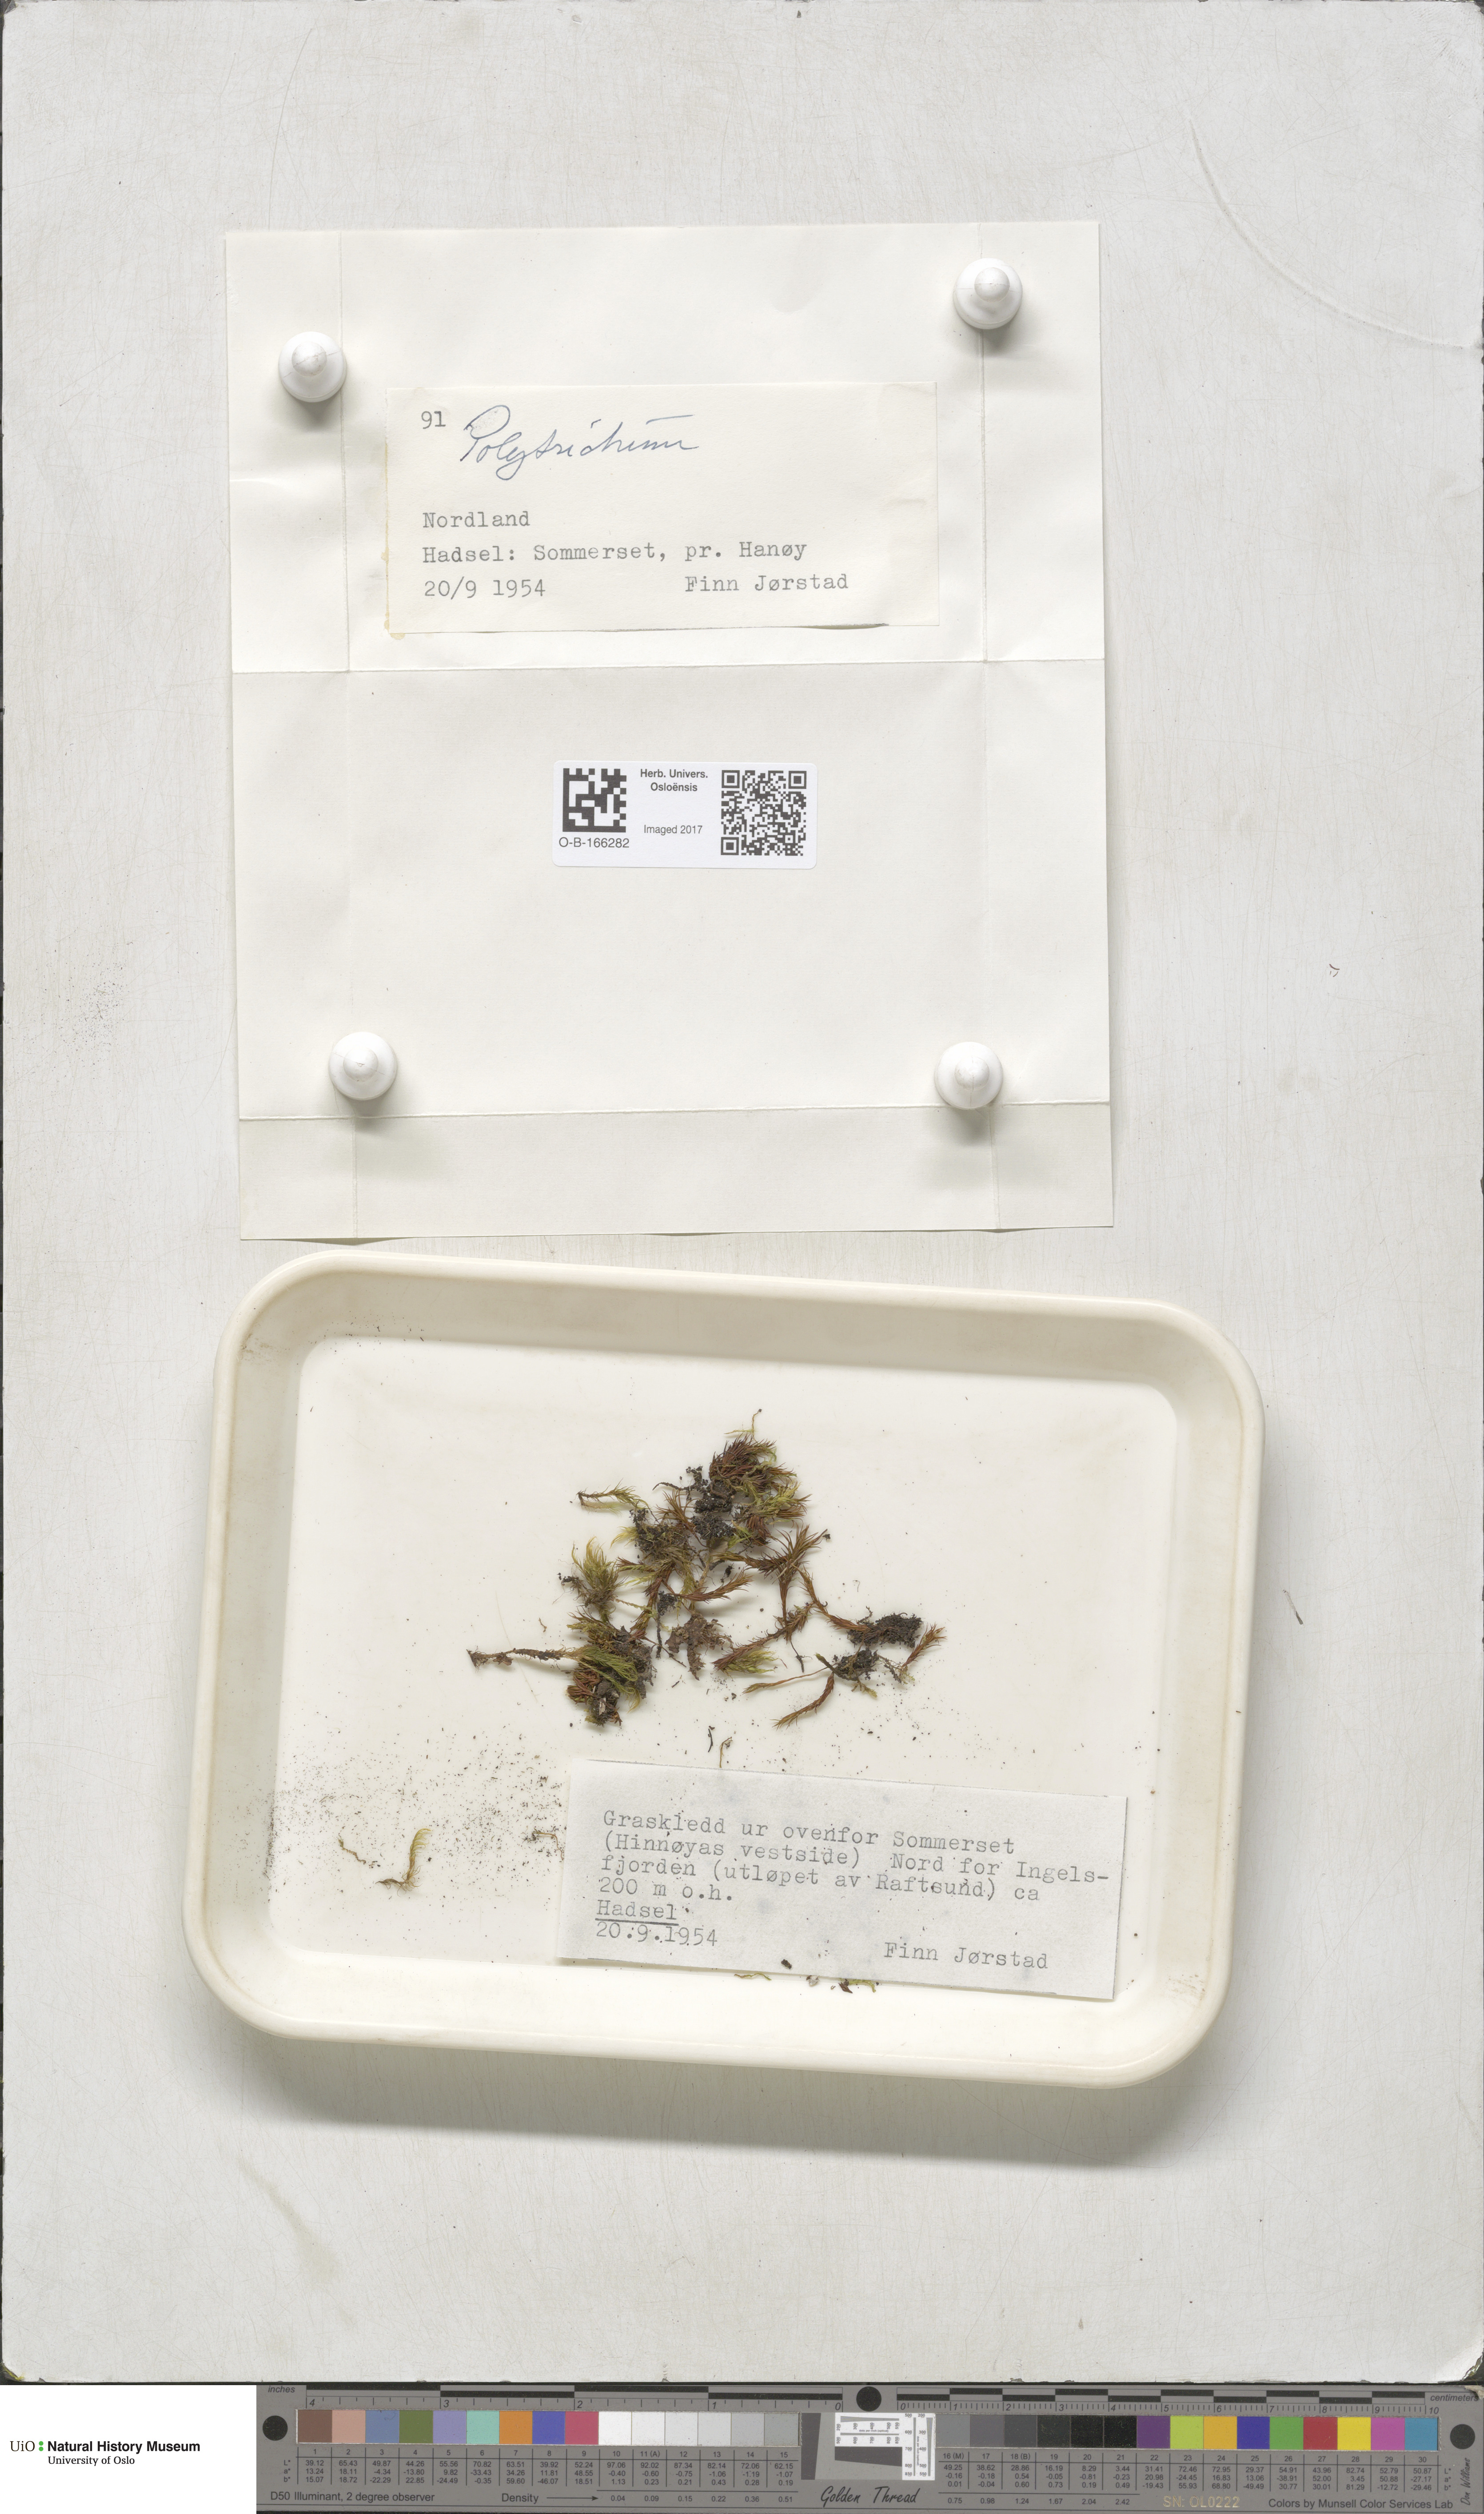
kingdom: Plantae
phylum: Bryophyta
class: Polytrichopsida
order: Polytrichales
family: Polytrichaceae
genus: Polytrichum
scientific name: Polytrichum
